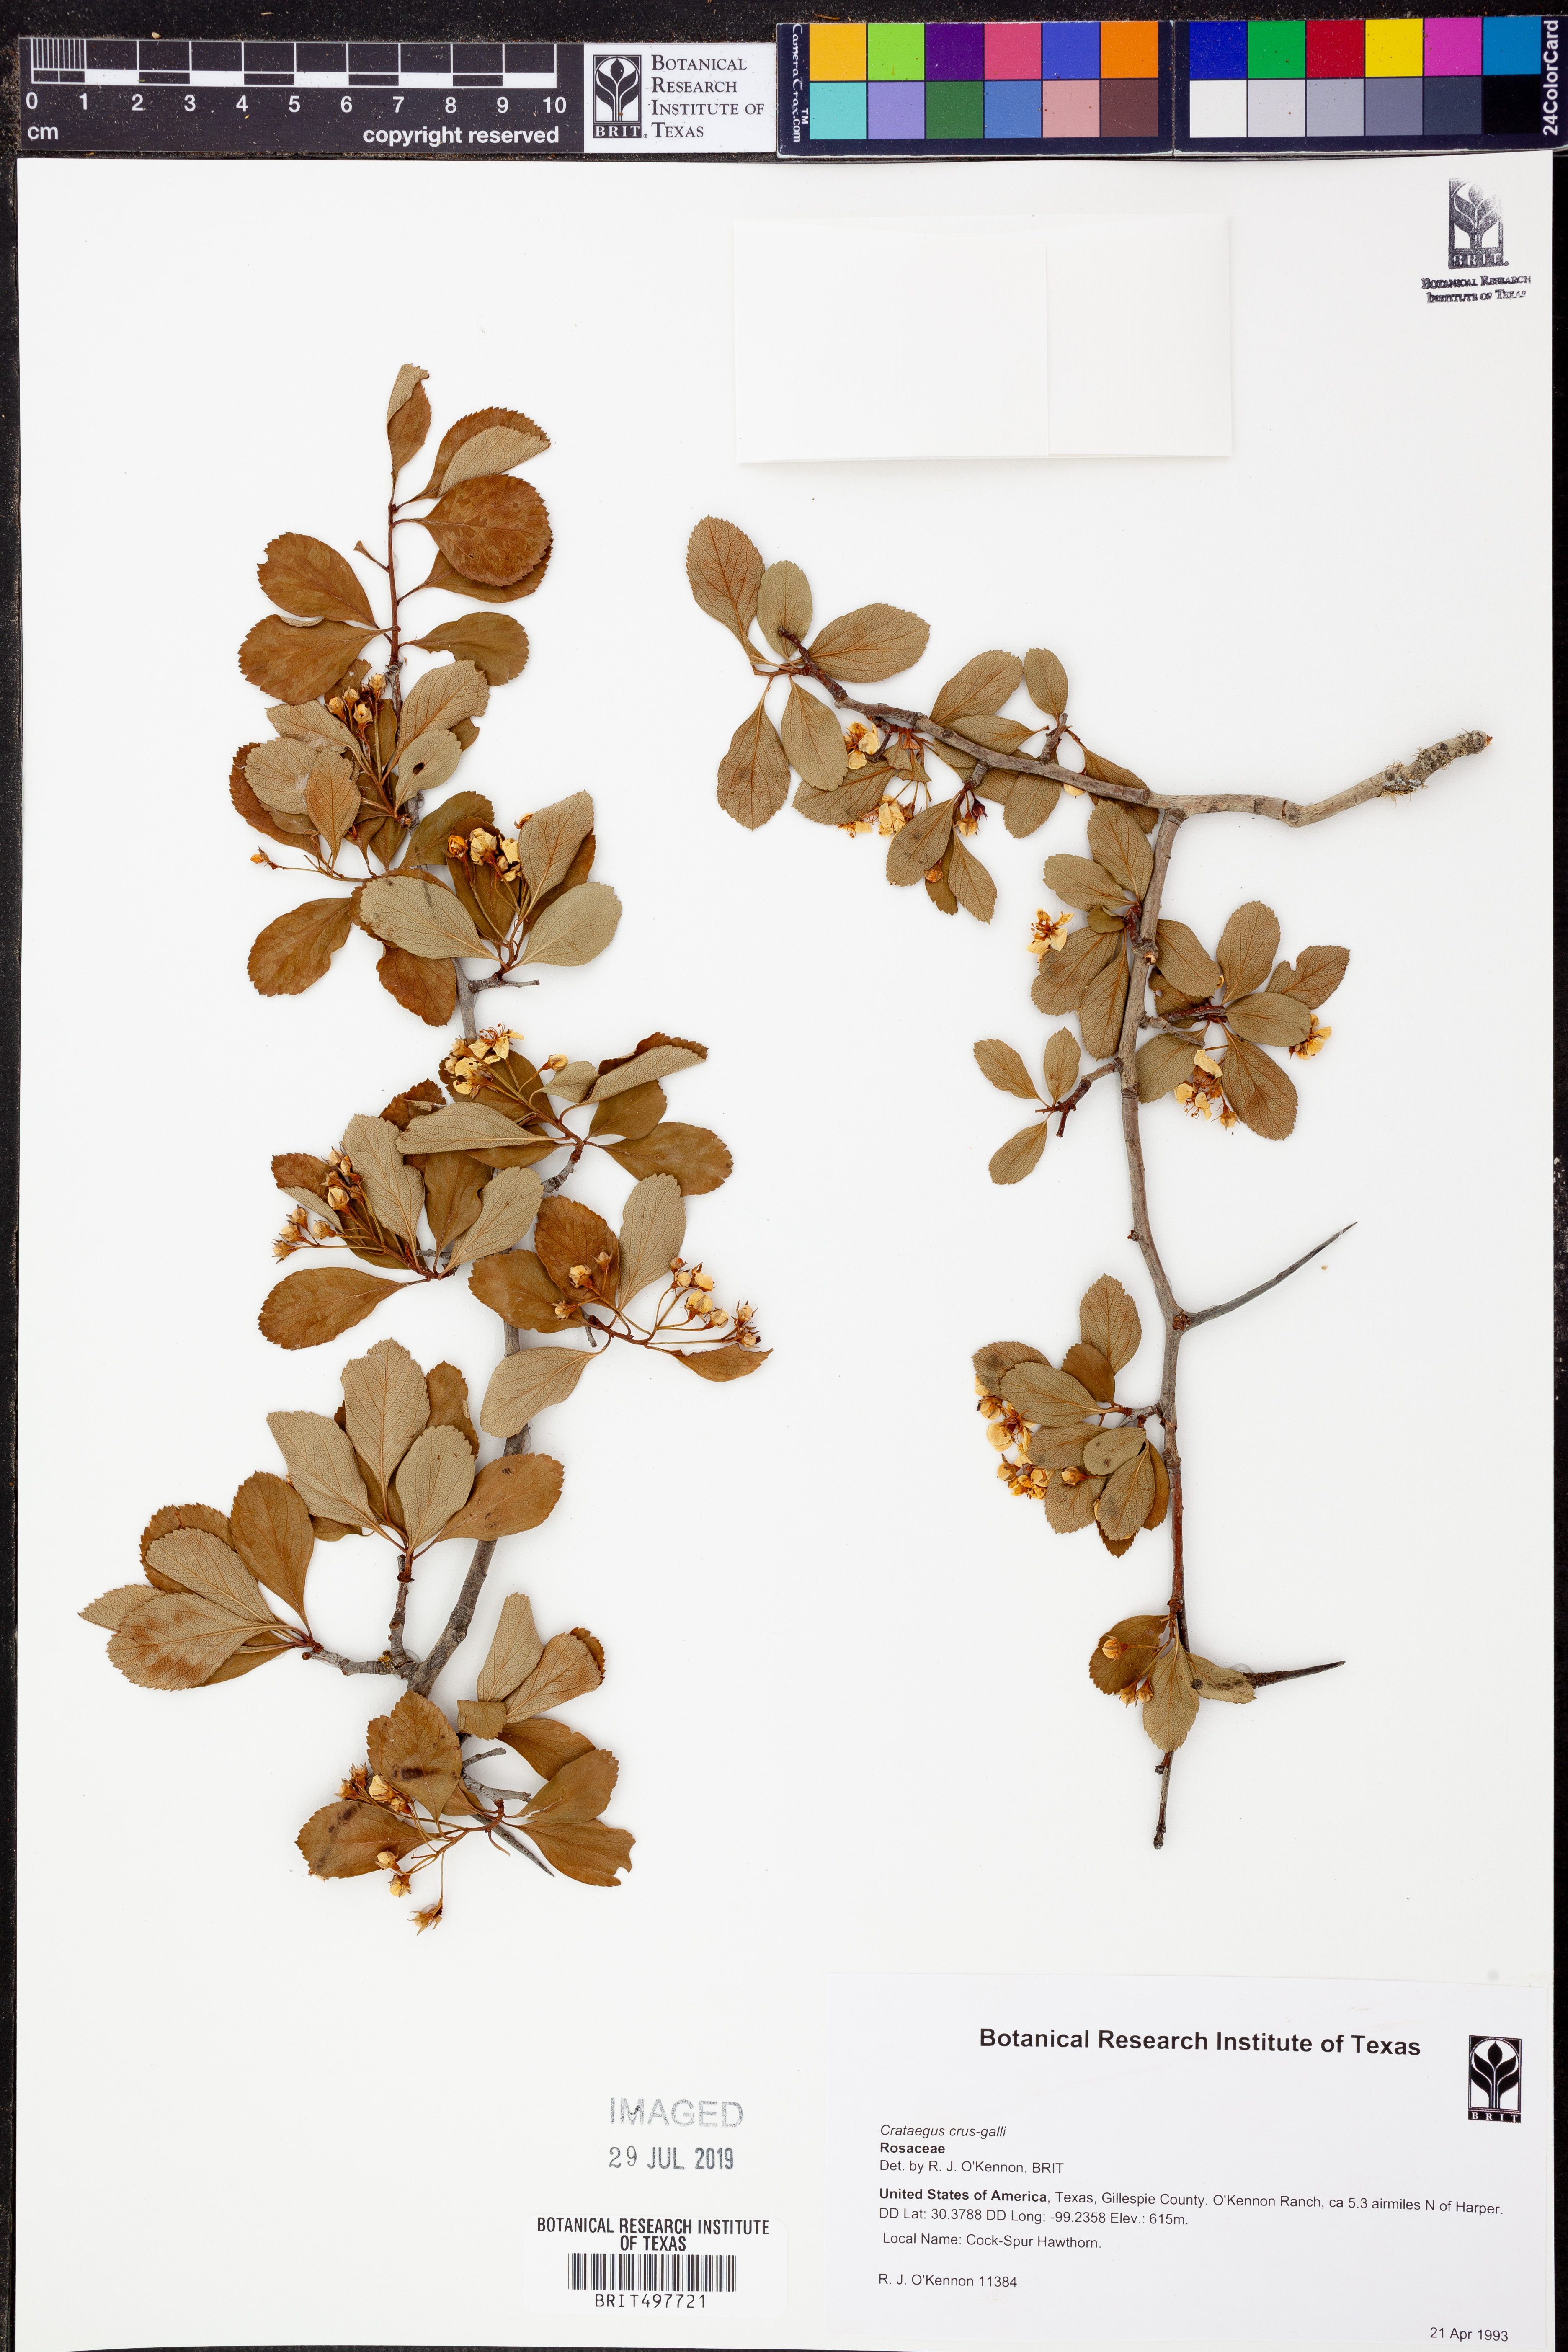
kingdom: Plantae
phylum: Tracheophyta
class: Magnoliopsida
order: Rosales
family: Rosaceae
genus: Crataegus
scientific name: Crataegus crus-galli
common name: Cockspurthorn
